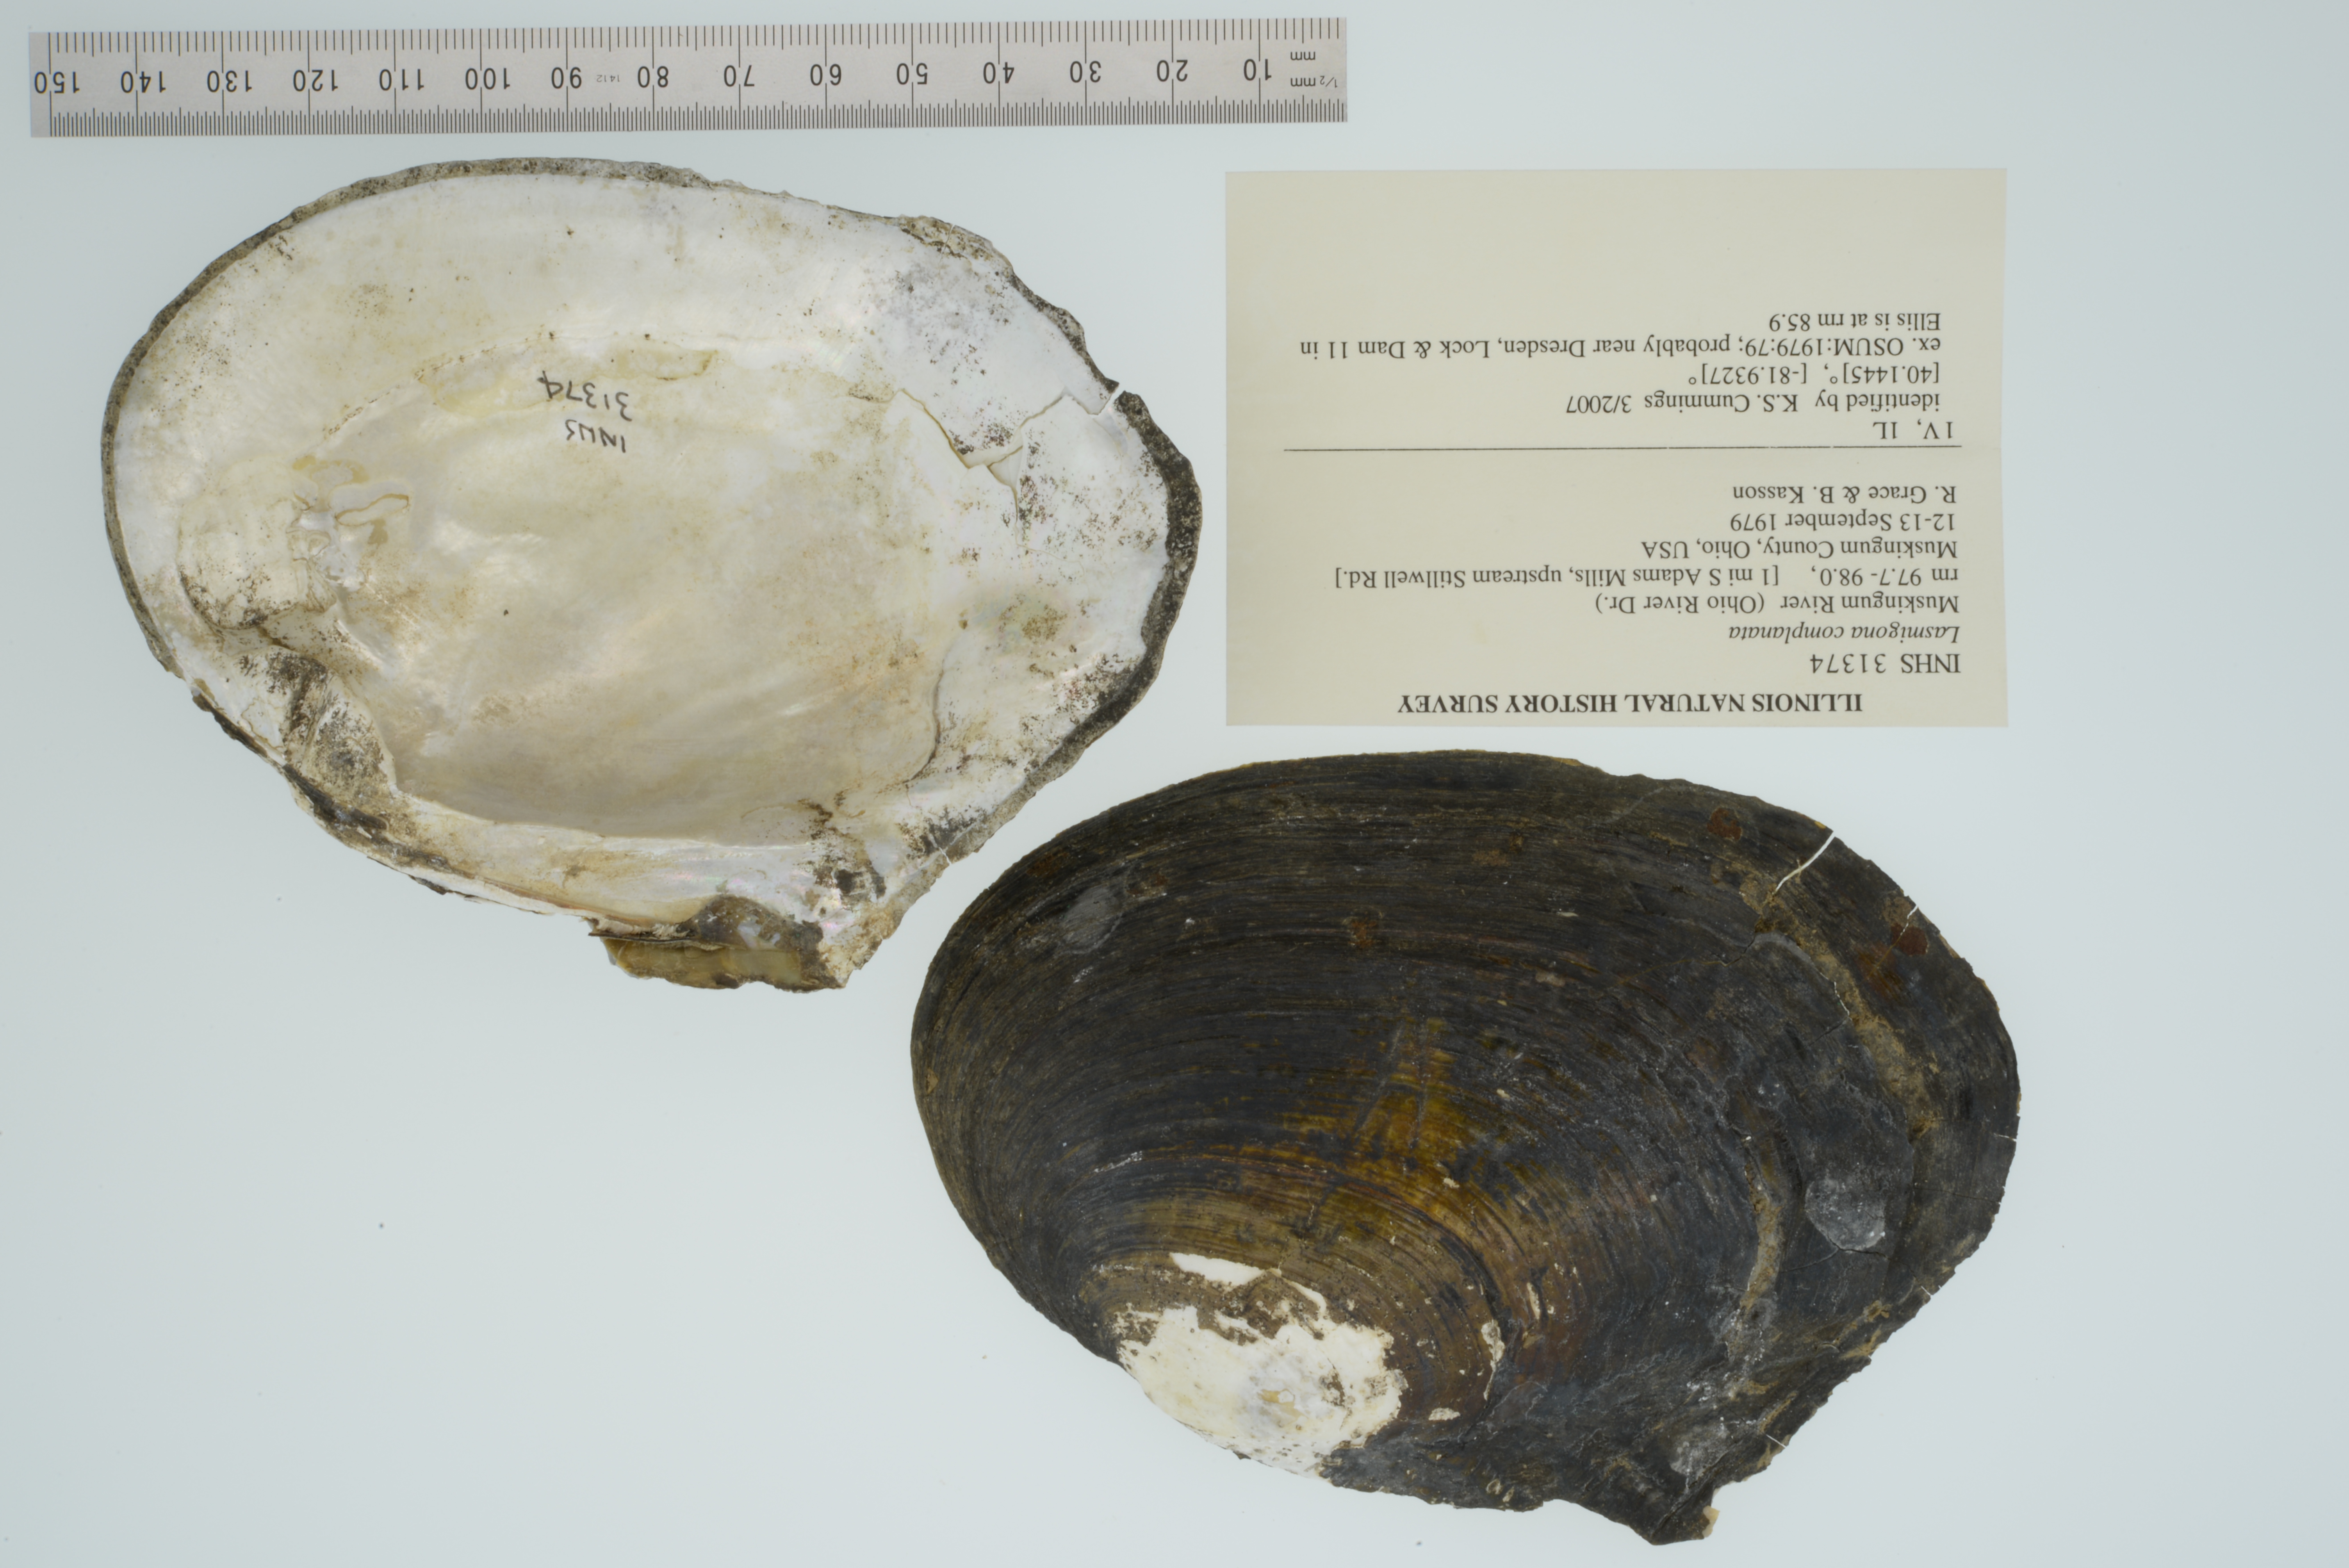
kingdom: Animalia
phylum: Mollusca
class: Bivalvia
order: Unionida
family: Unionidae
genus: Lasmigona
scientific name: Lasmigona complanata
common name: White heelsplitter
